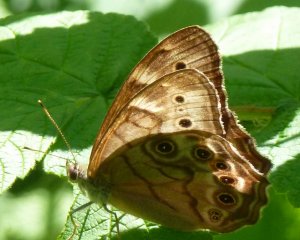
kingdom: Animalia
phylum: Arthropoda
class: Insecta
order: Lepidoptera
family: Nymphalidae
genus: Lethe
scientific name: Lethe anthedon
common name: Northern Pearly-Eye
